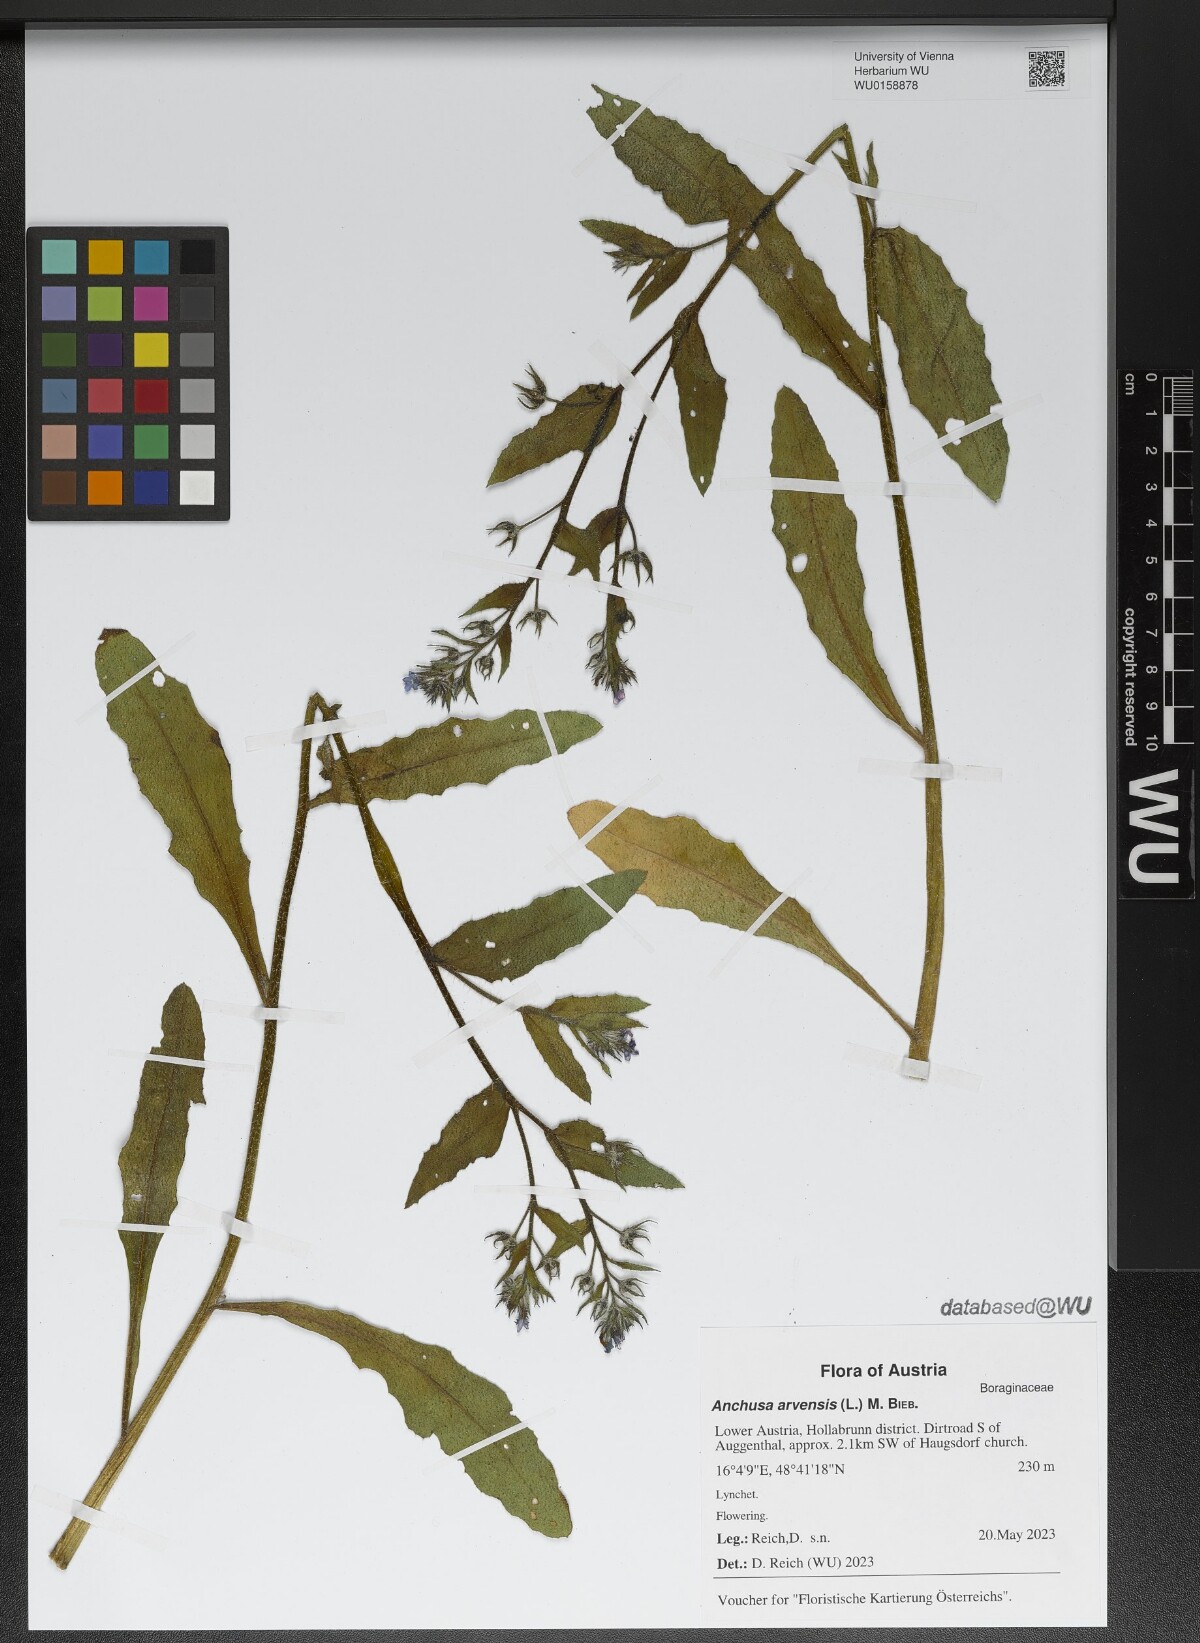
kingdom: Plantae
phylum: Tracheophyta
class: Magnoliopsida
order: Boraginales
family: Boraginaceae
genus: Lycopsis
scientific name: Lycopsis arvensis
